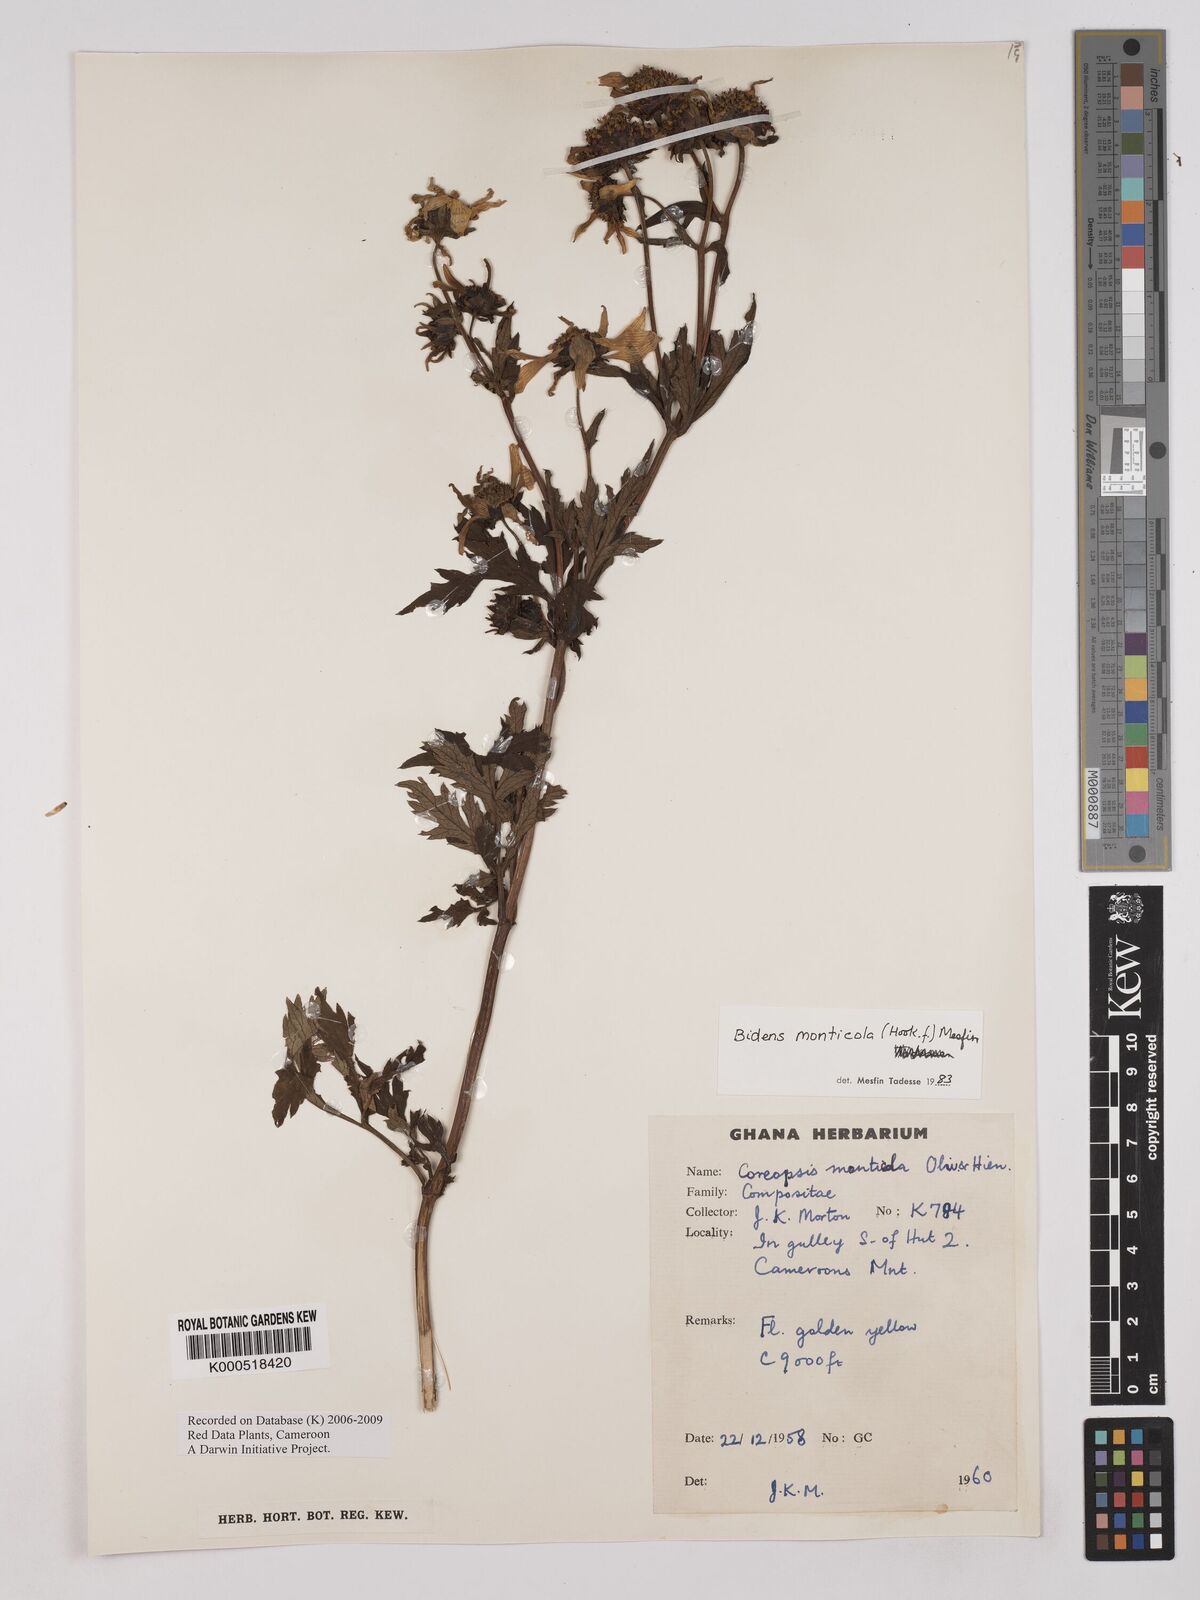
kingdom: Plantae
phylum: Tracheophyta
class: Magnoliopsida
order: Asterales
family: Asteraceae
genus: Bidens
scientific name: Bidens mannii
